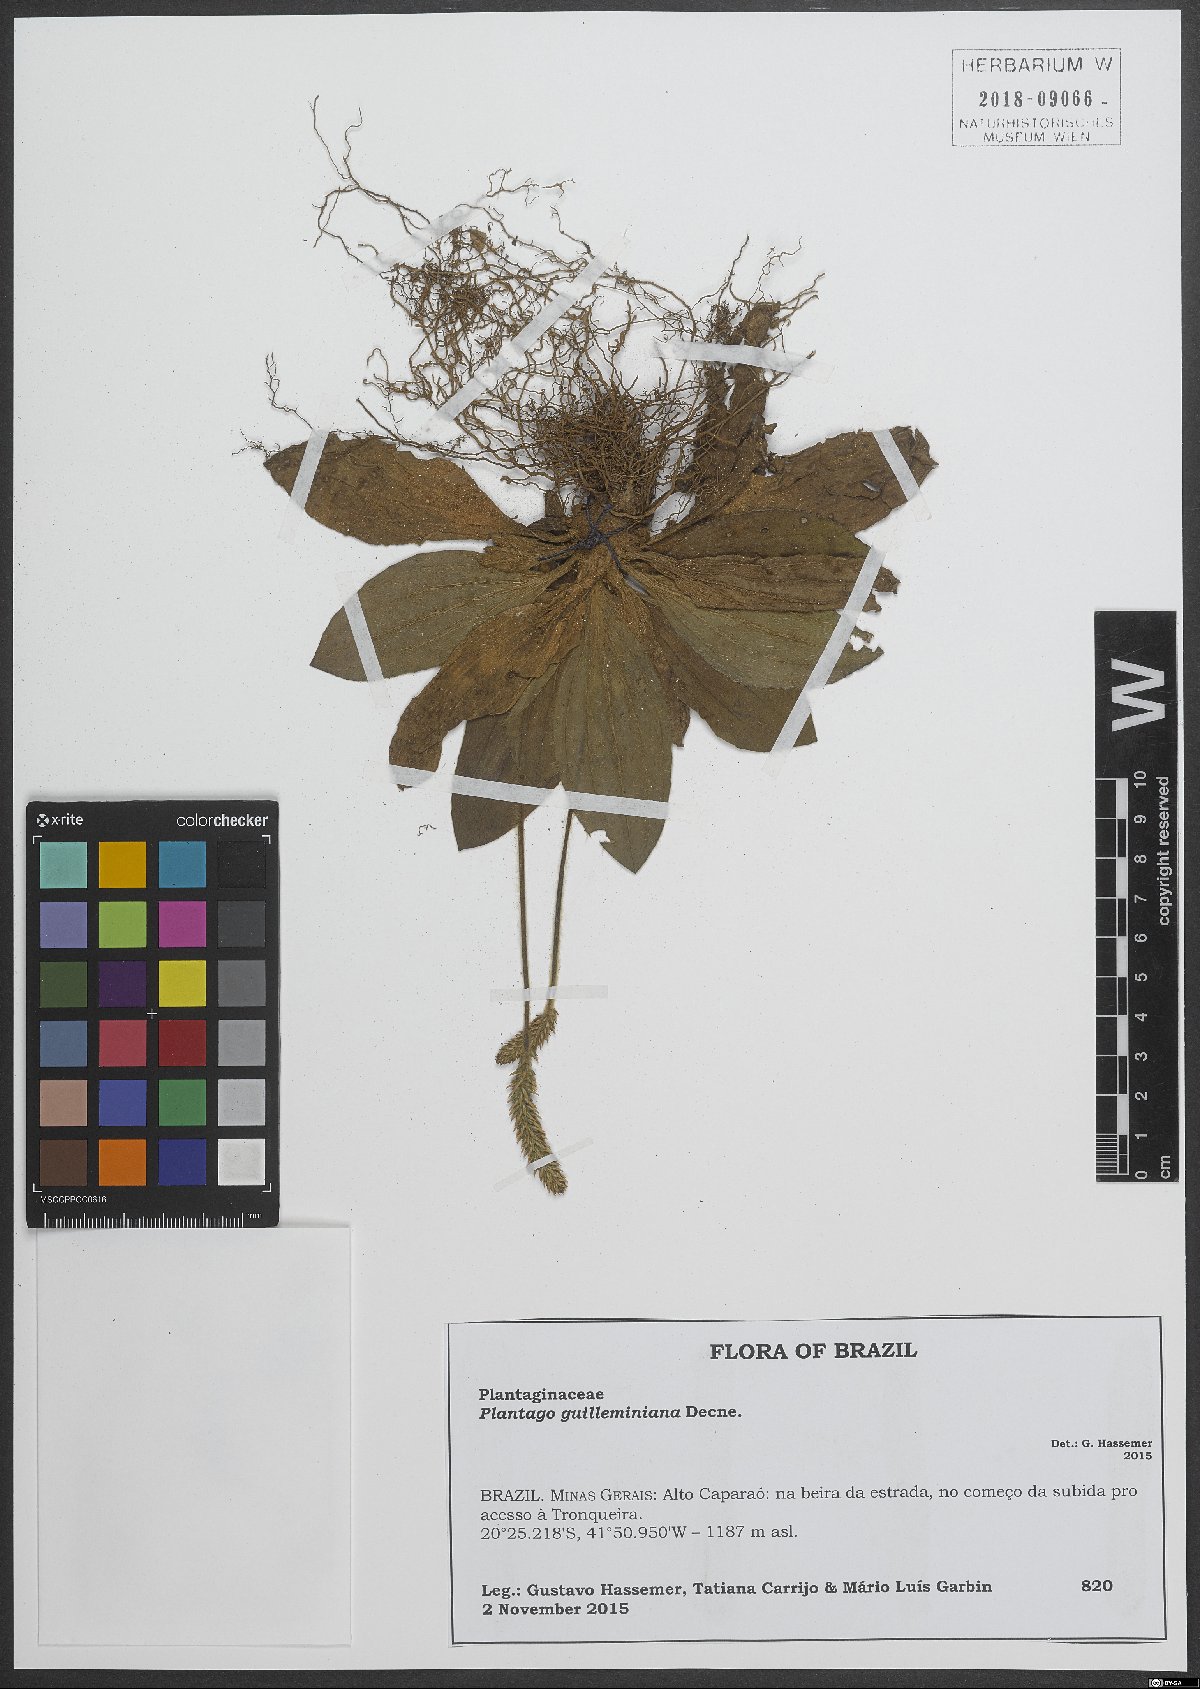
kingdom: Plantae
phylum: Tracheophyta
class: Magnoliopsida
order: Lamiales
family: Plantaginaceae
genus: Plantago
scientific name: Plantago guilleminiana
